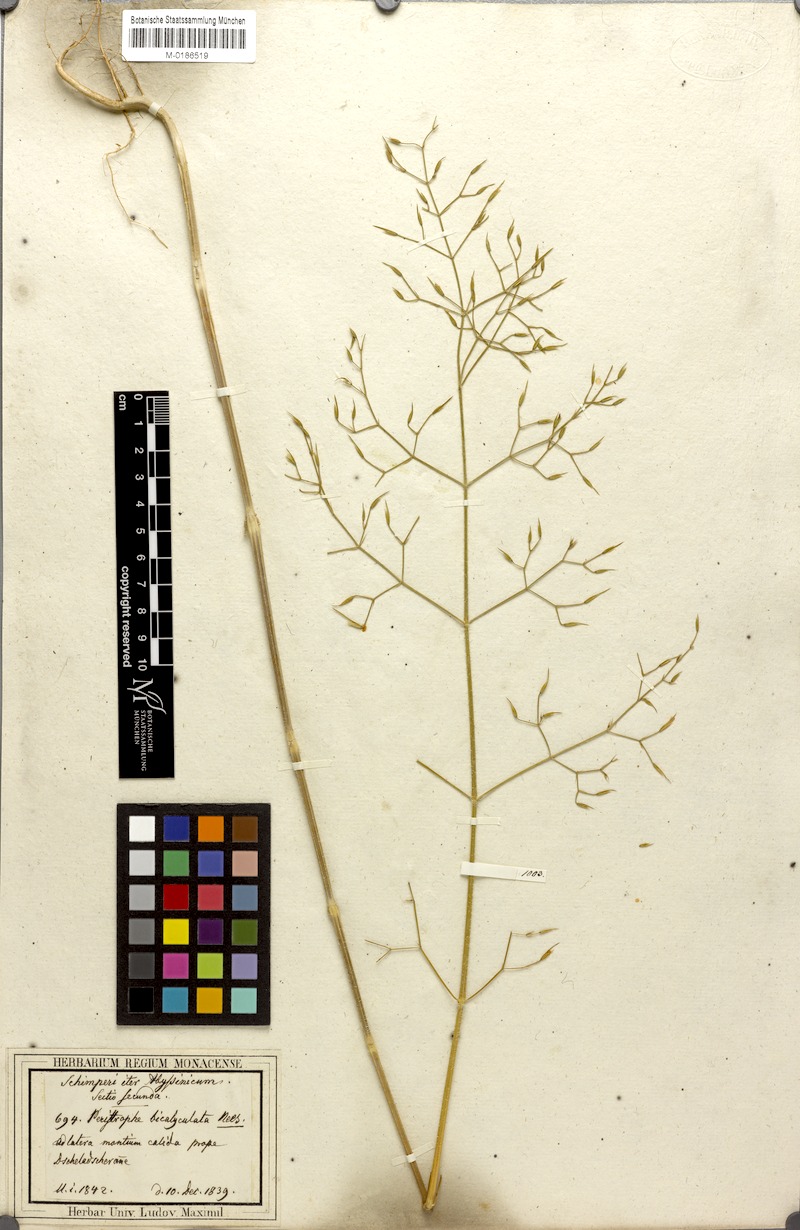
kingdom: Plantae
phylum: Tracheophyta
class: Magnoliopsida
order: Lamiales
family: Acanthaceae
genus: Dicliptera
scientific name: Dicliptera paniculata
